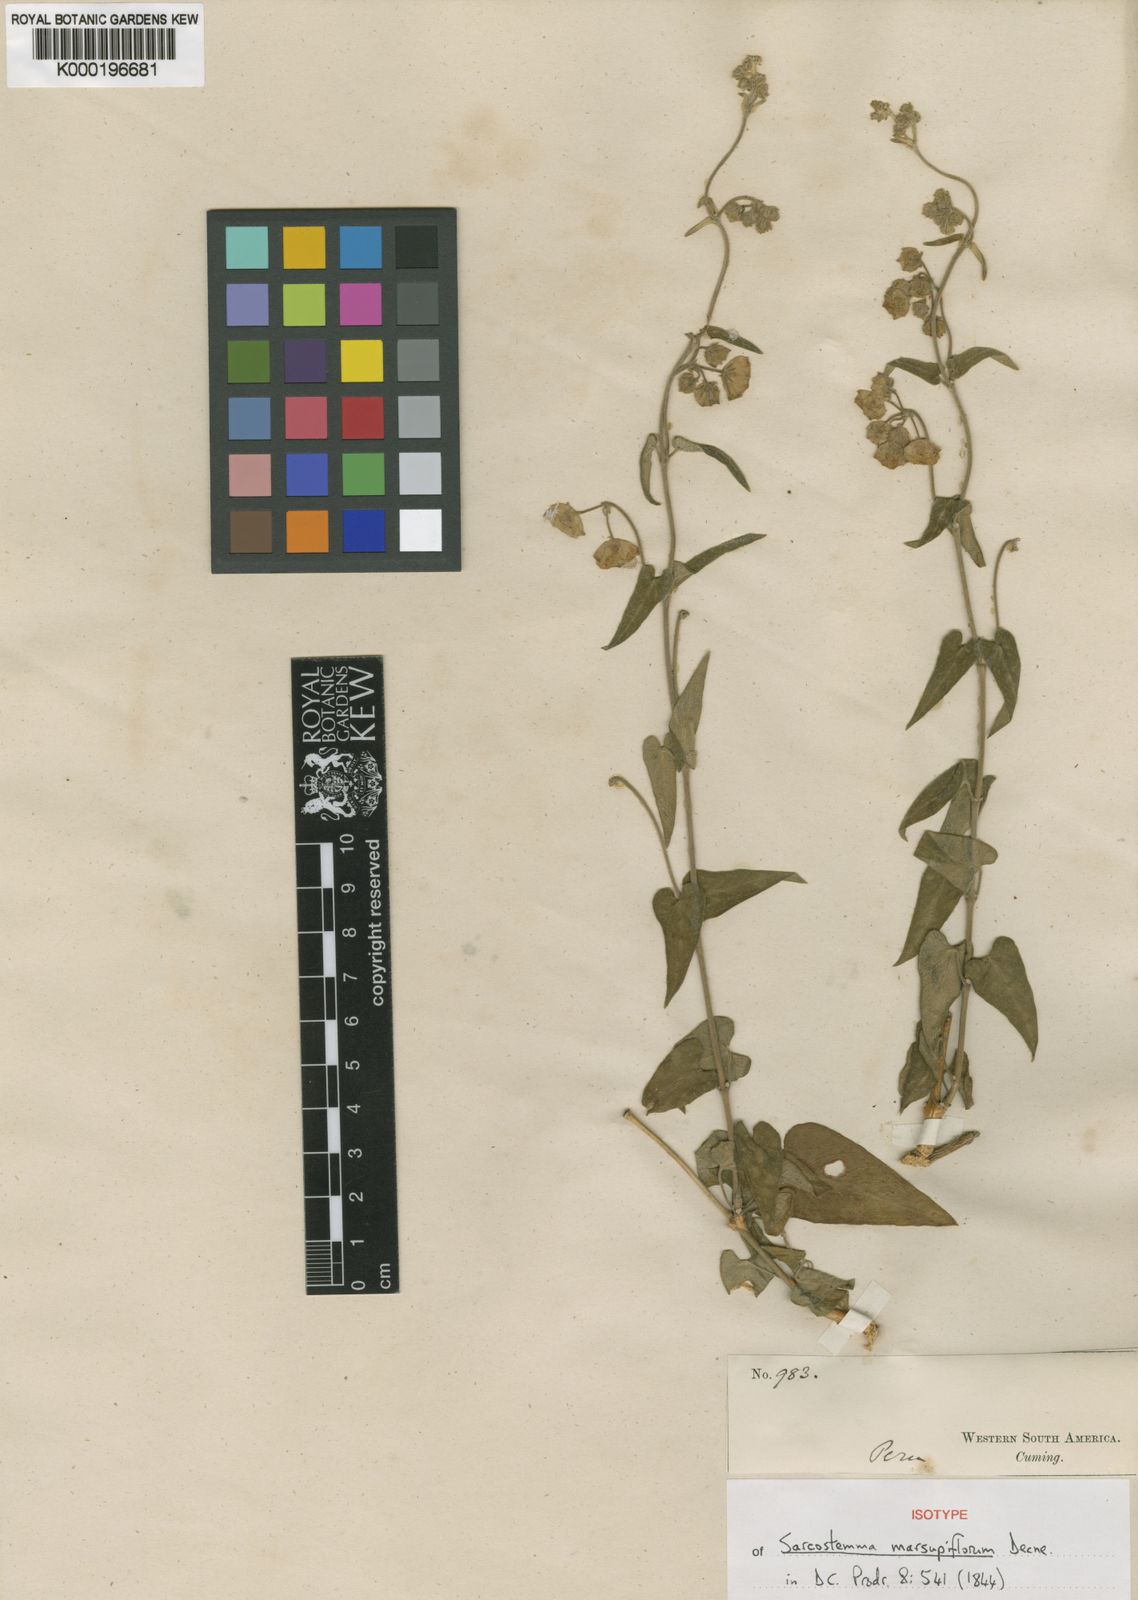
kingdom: Plantae
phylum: Tracheophyta
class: Magnoliopsida
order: Gentianales
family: Apocynaceae
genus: Philibertia
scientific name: Philibertia solanoides
